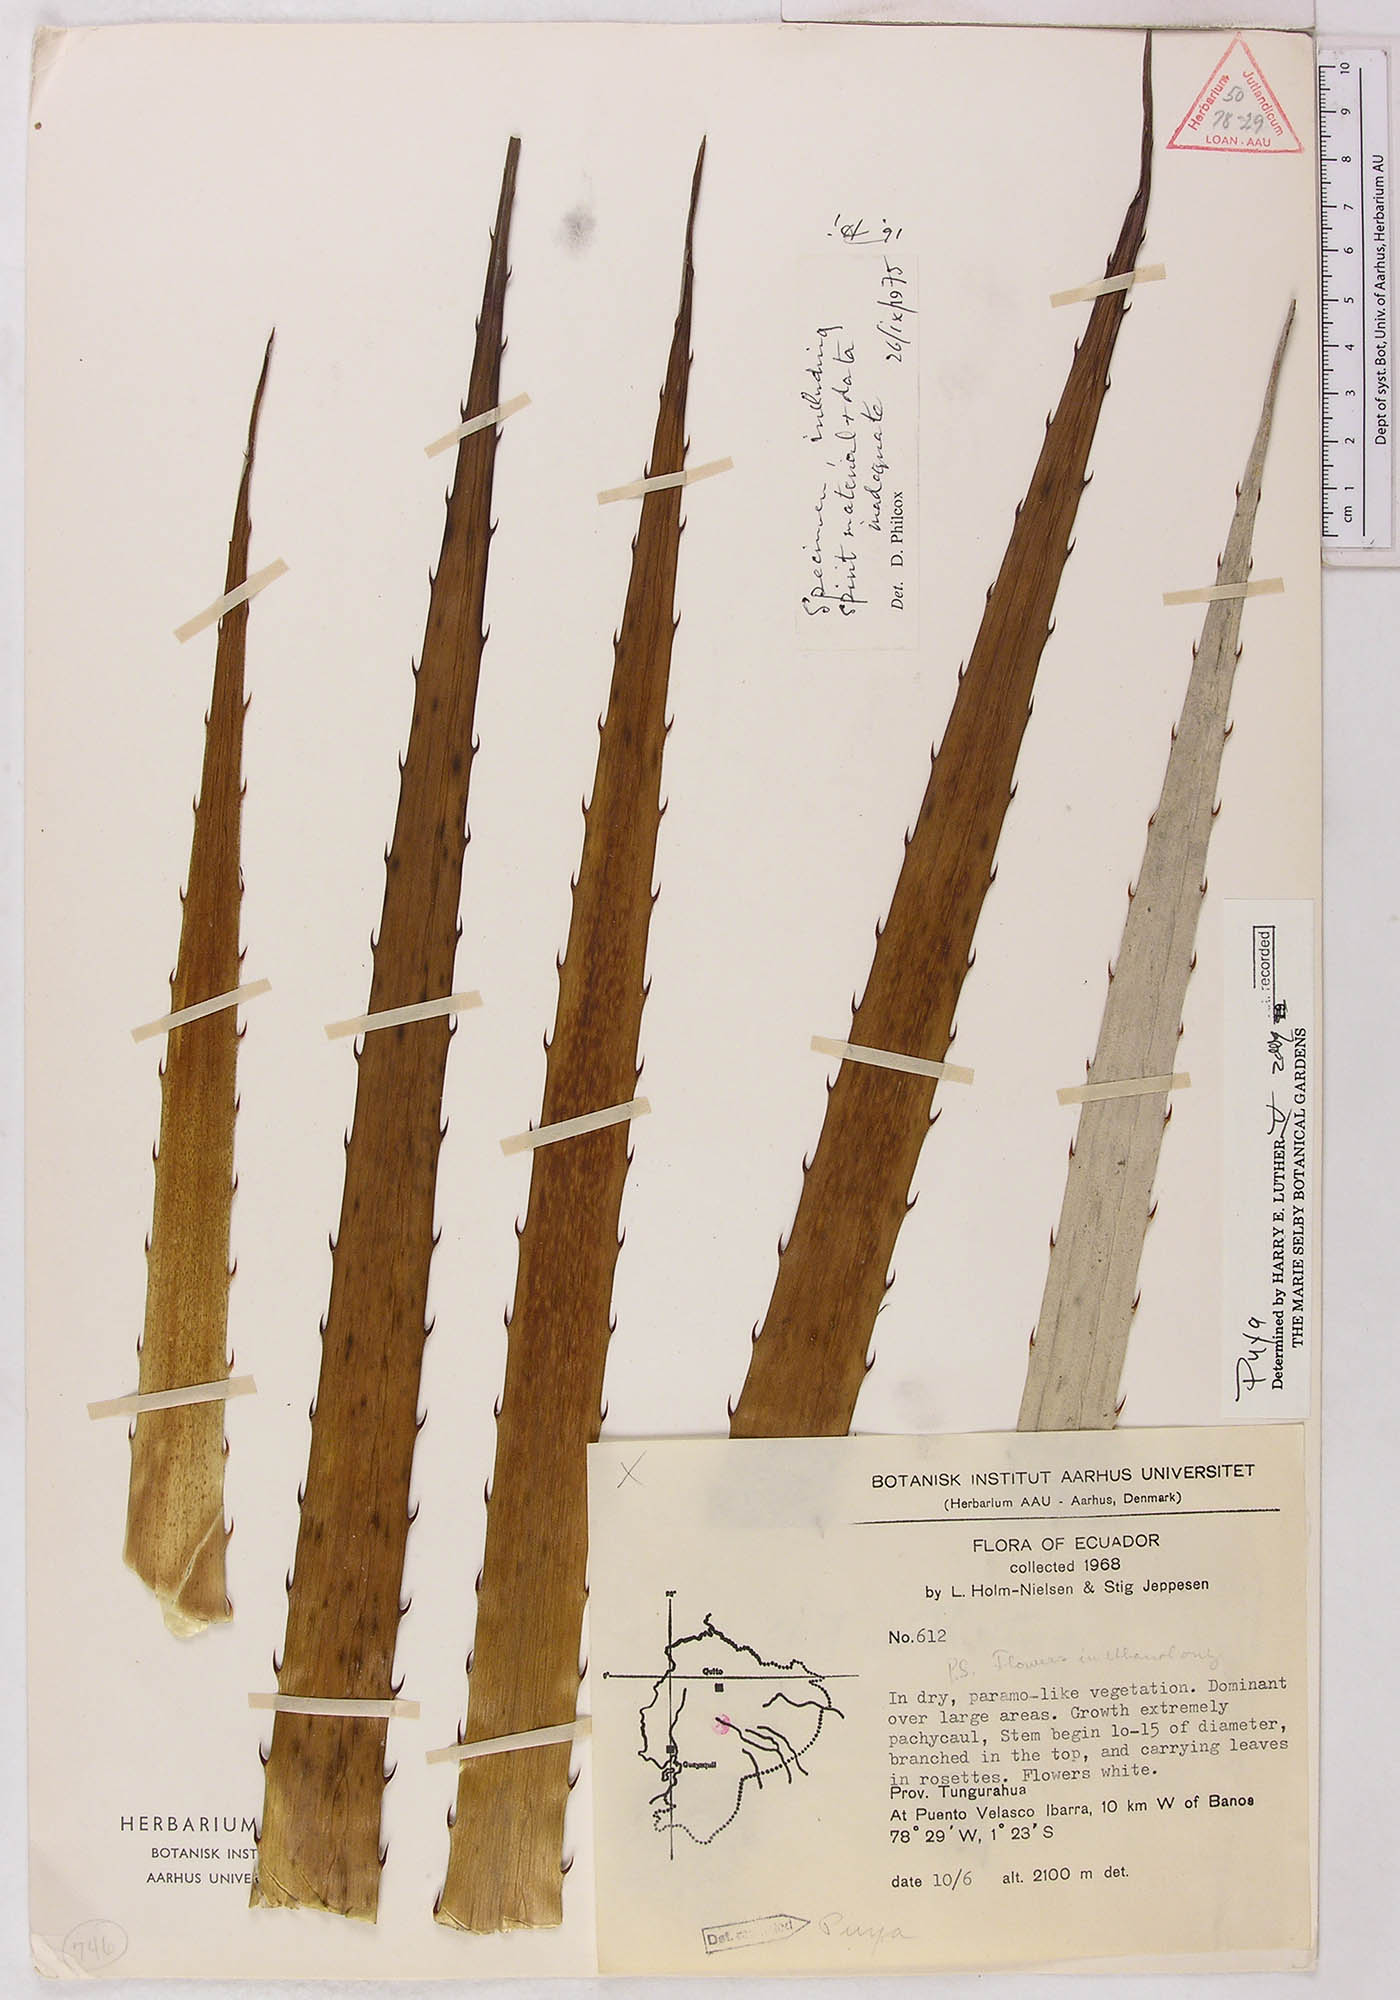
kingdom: Plantae
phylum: Tracheophyta
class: Liliopsida
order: Poales
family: Bromeliaceae
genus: Puya
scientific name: Puya
